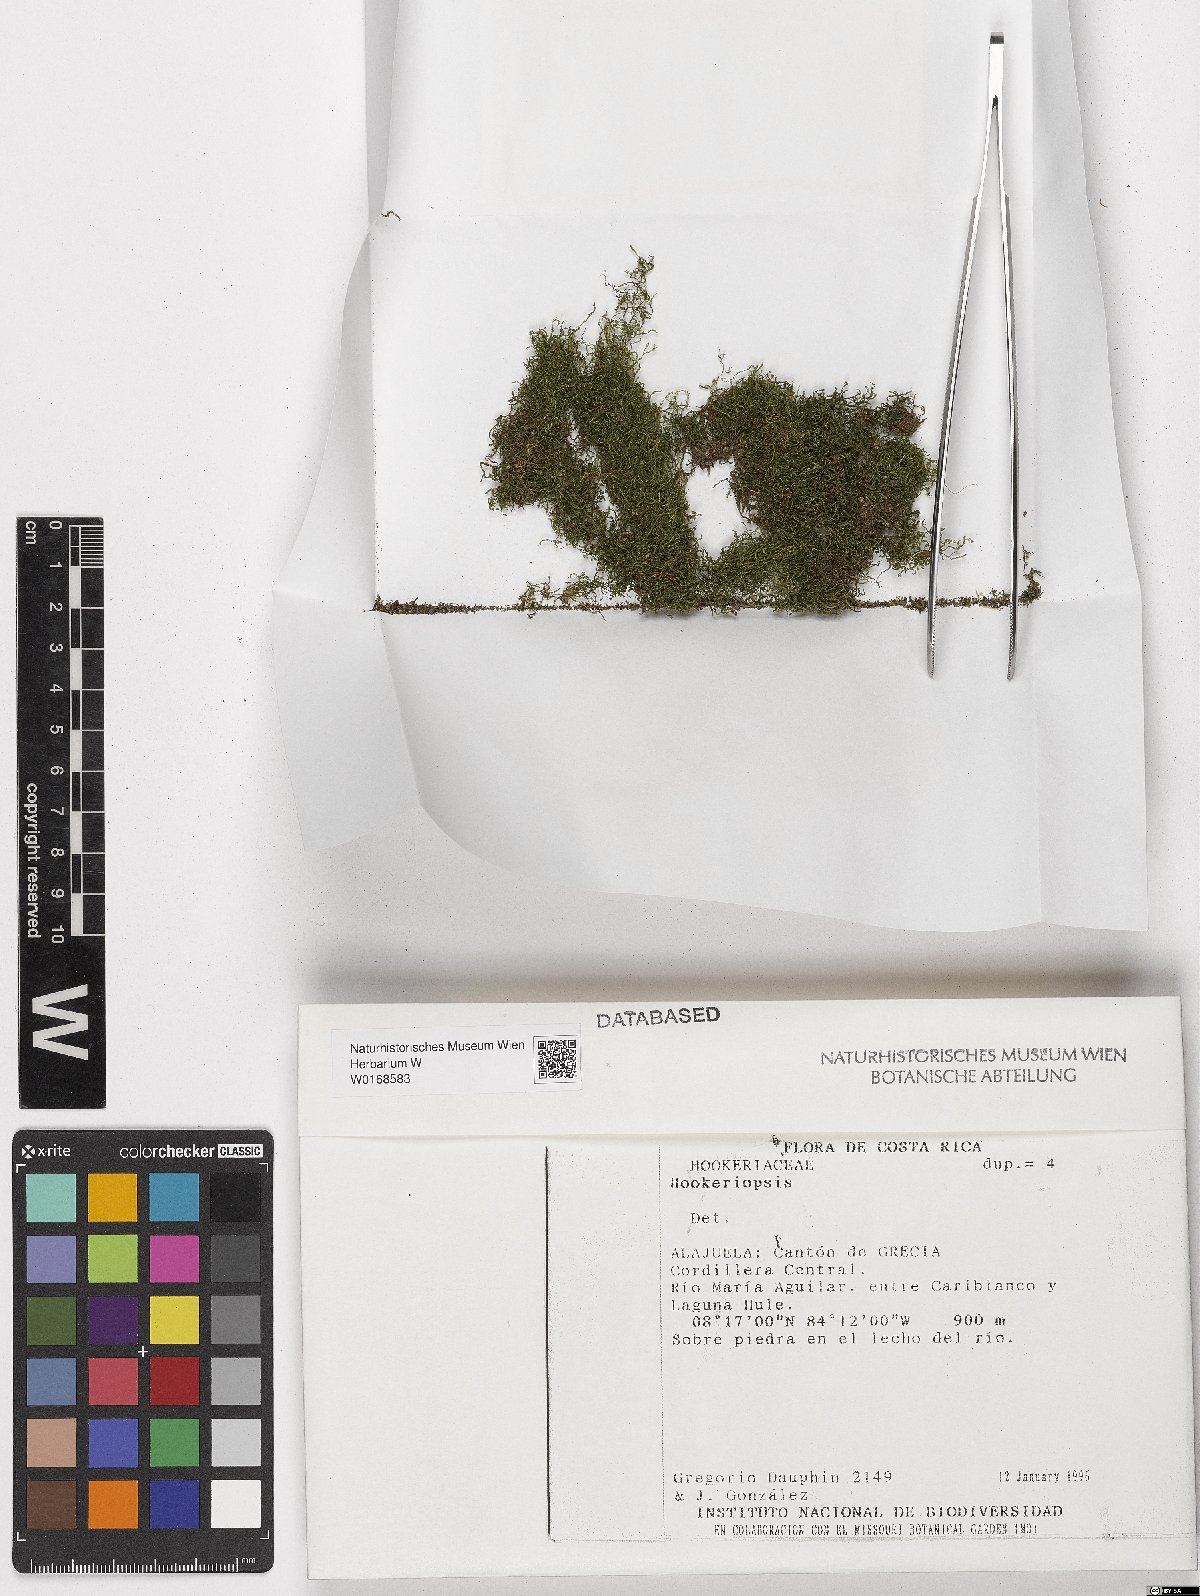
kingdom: Plantae
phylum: Bryophyta
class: Bryopsida
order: Hookeriales
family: Pilotrichaceae
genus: Hookeriopsis
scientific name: Hookeriopsis
